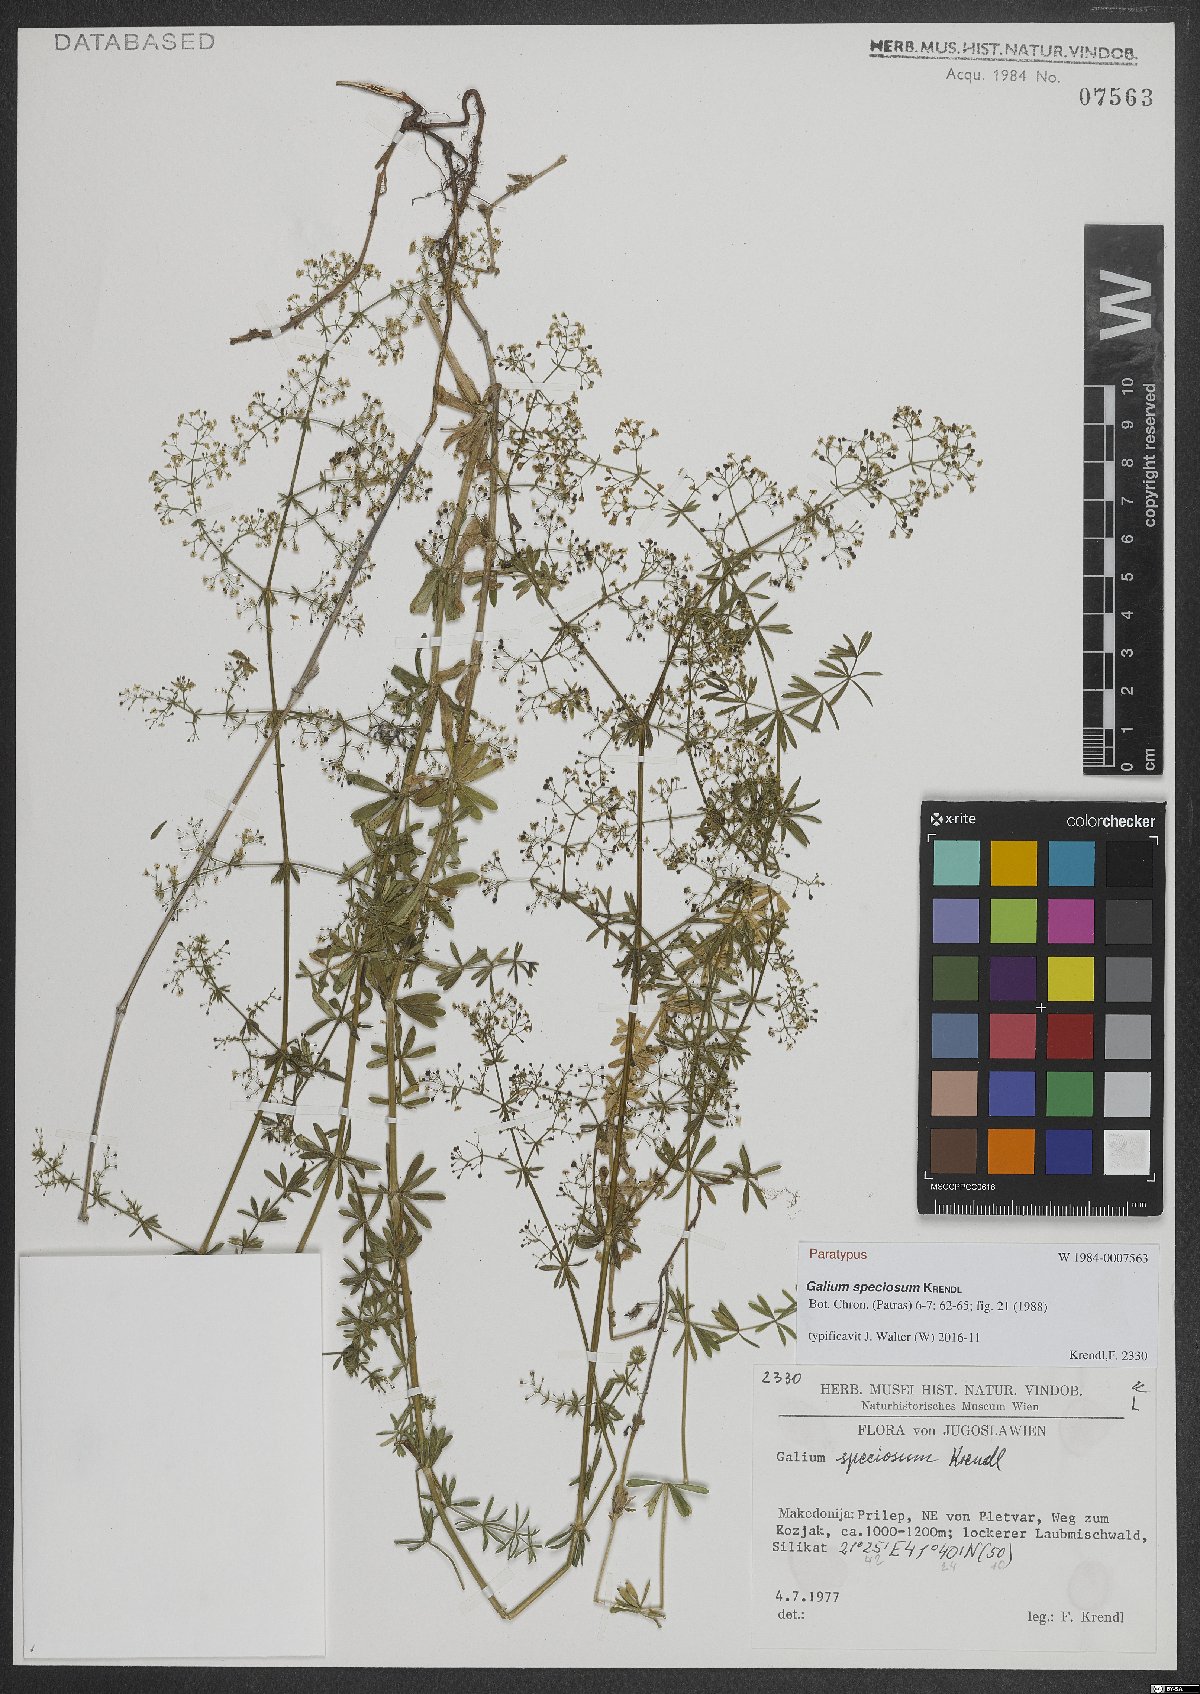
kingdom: Plantae
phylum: Tracheophyta
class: Magnoliopsida
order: Gentianales
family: Rubiaceae
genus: Galium
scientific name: Galium speciosum
